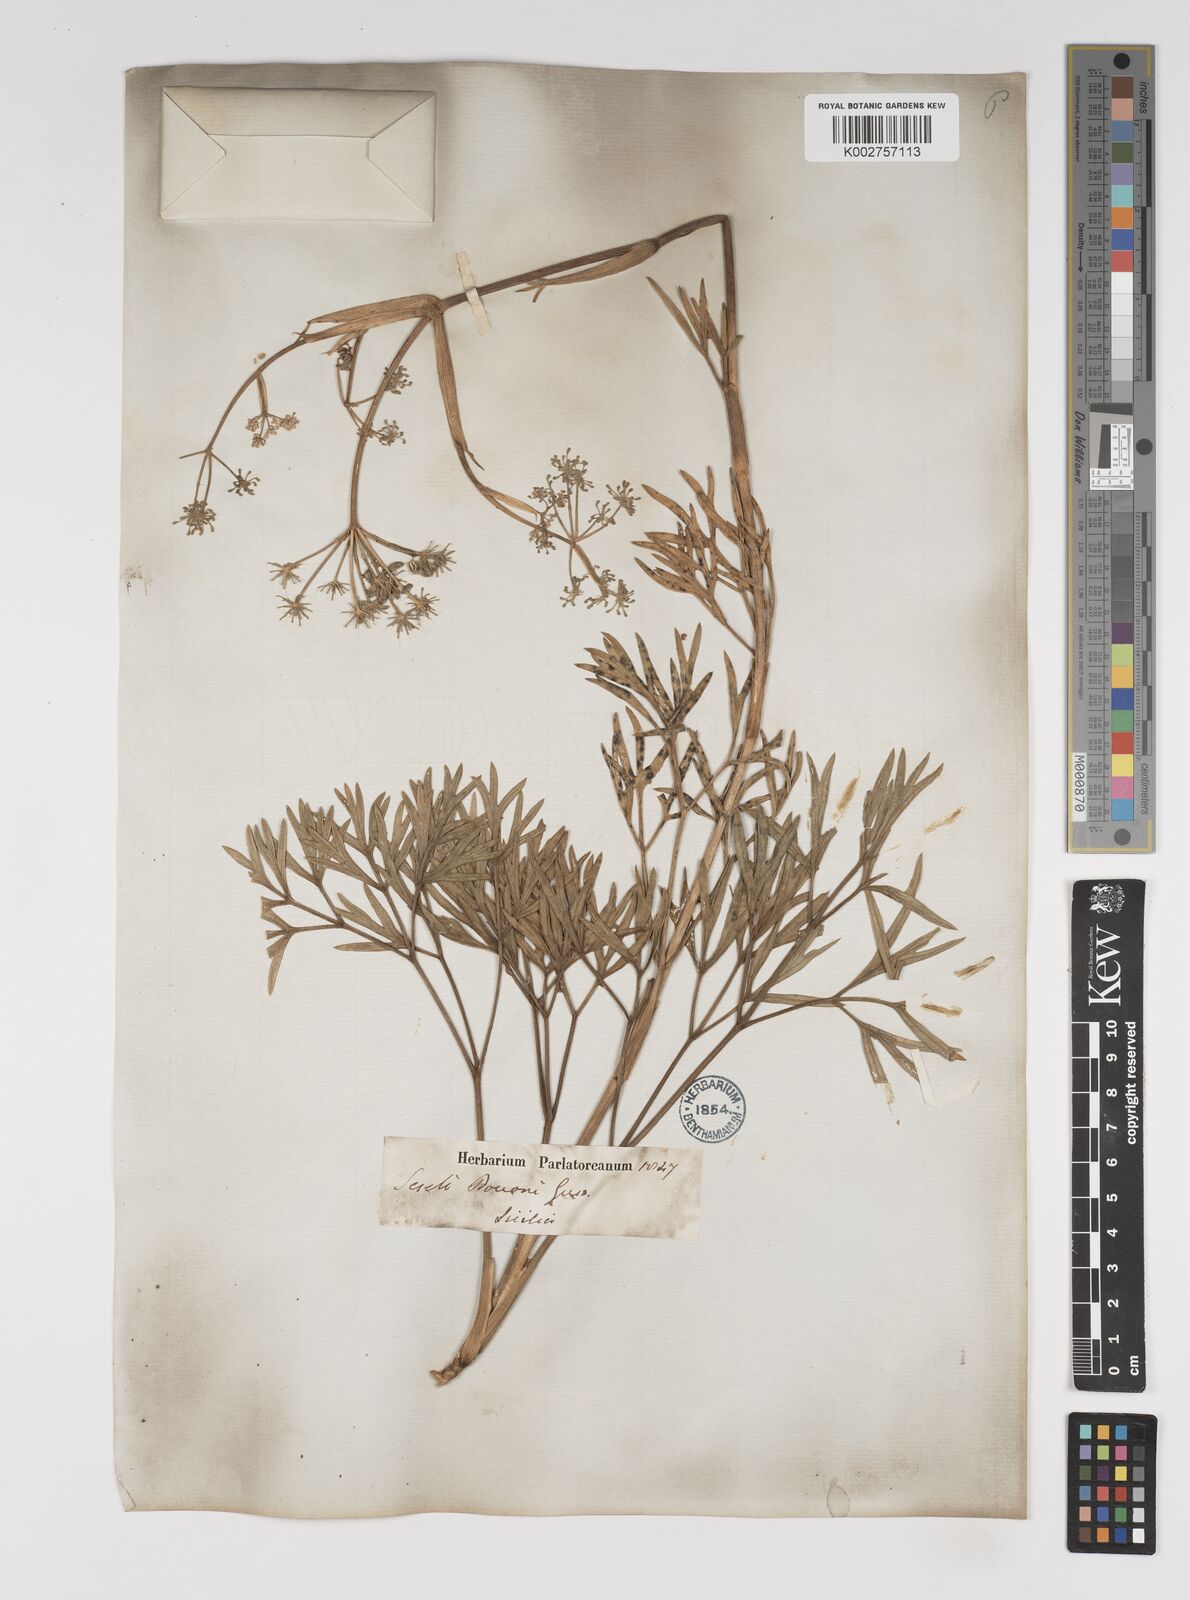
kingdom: Plantae
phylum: Tracheophyta
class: Magnoliopsida
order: Apiales
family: Apiaceae
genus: Seseli
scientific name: Seseli bocconei
